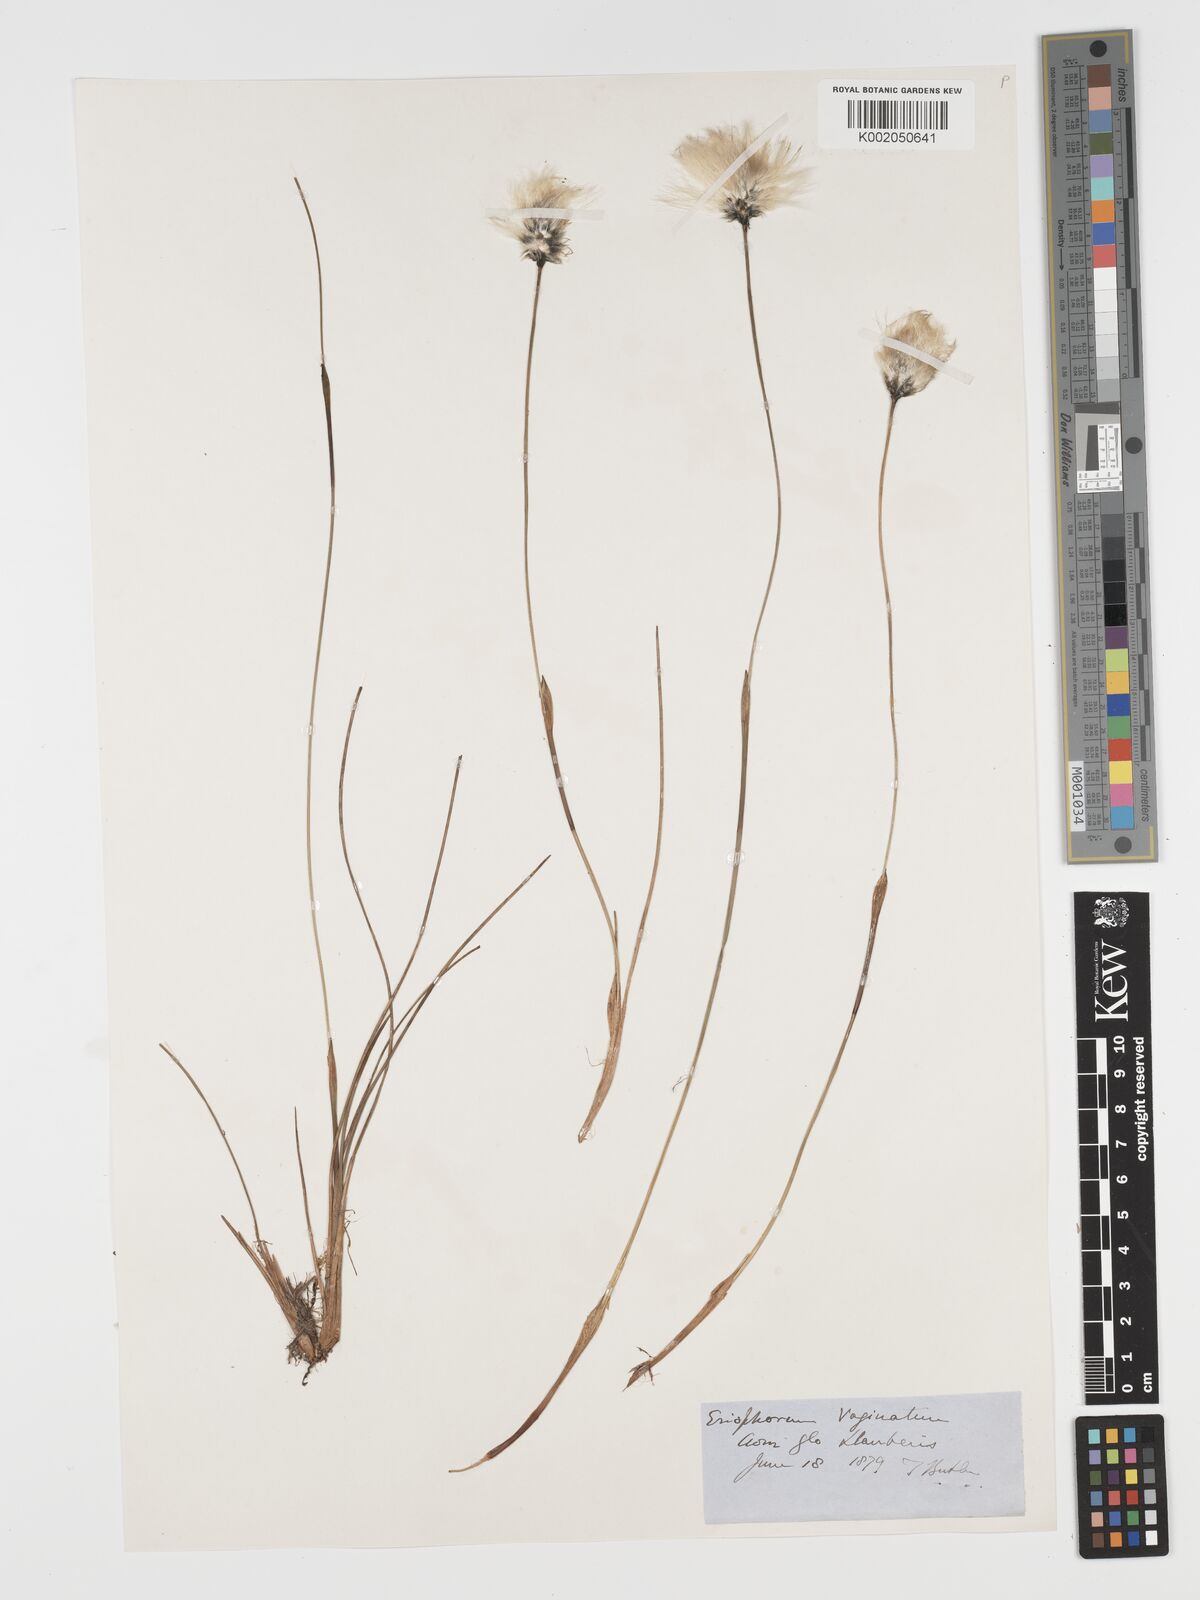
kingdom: Plantae
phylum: Tracheophyta
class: Liliopsida
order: Poales
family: Cyperaceae
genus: Eriophorum
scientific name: Eriophorum vaginatum
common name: Hare's-tail cottongrass
